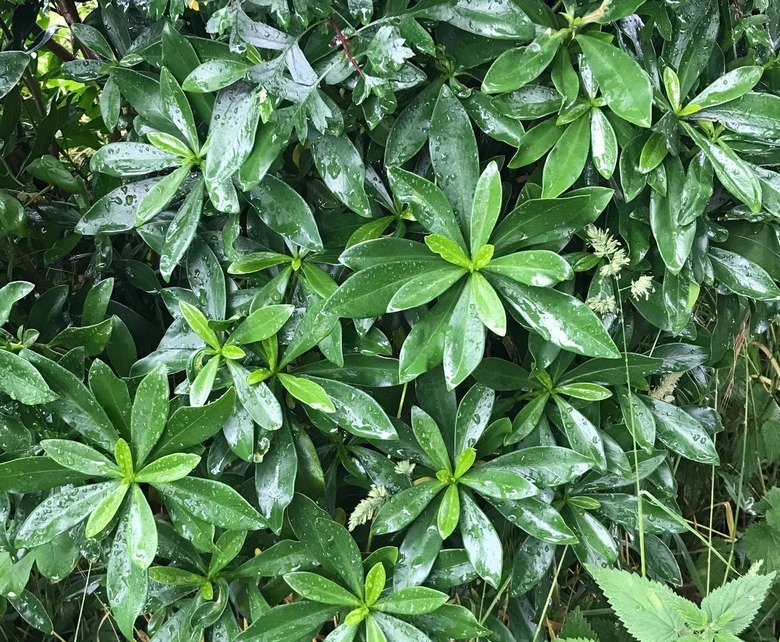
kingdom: Plantae
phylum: Tracheophyta
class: Magnoliopsida
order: Malvales
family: Thymelaeaceae
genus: Daphne
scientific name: Daphne laureola
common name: Laurbær-dafne
